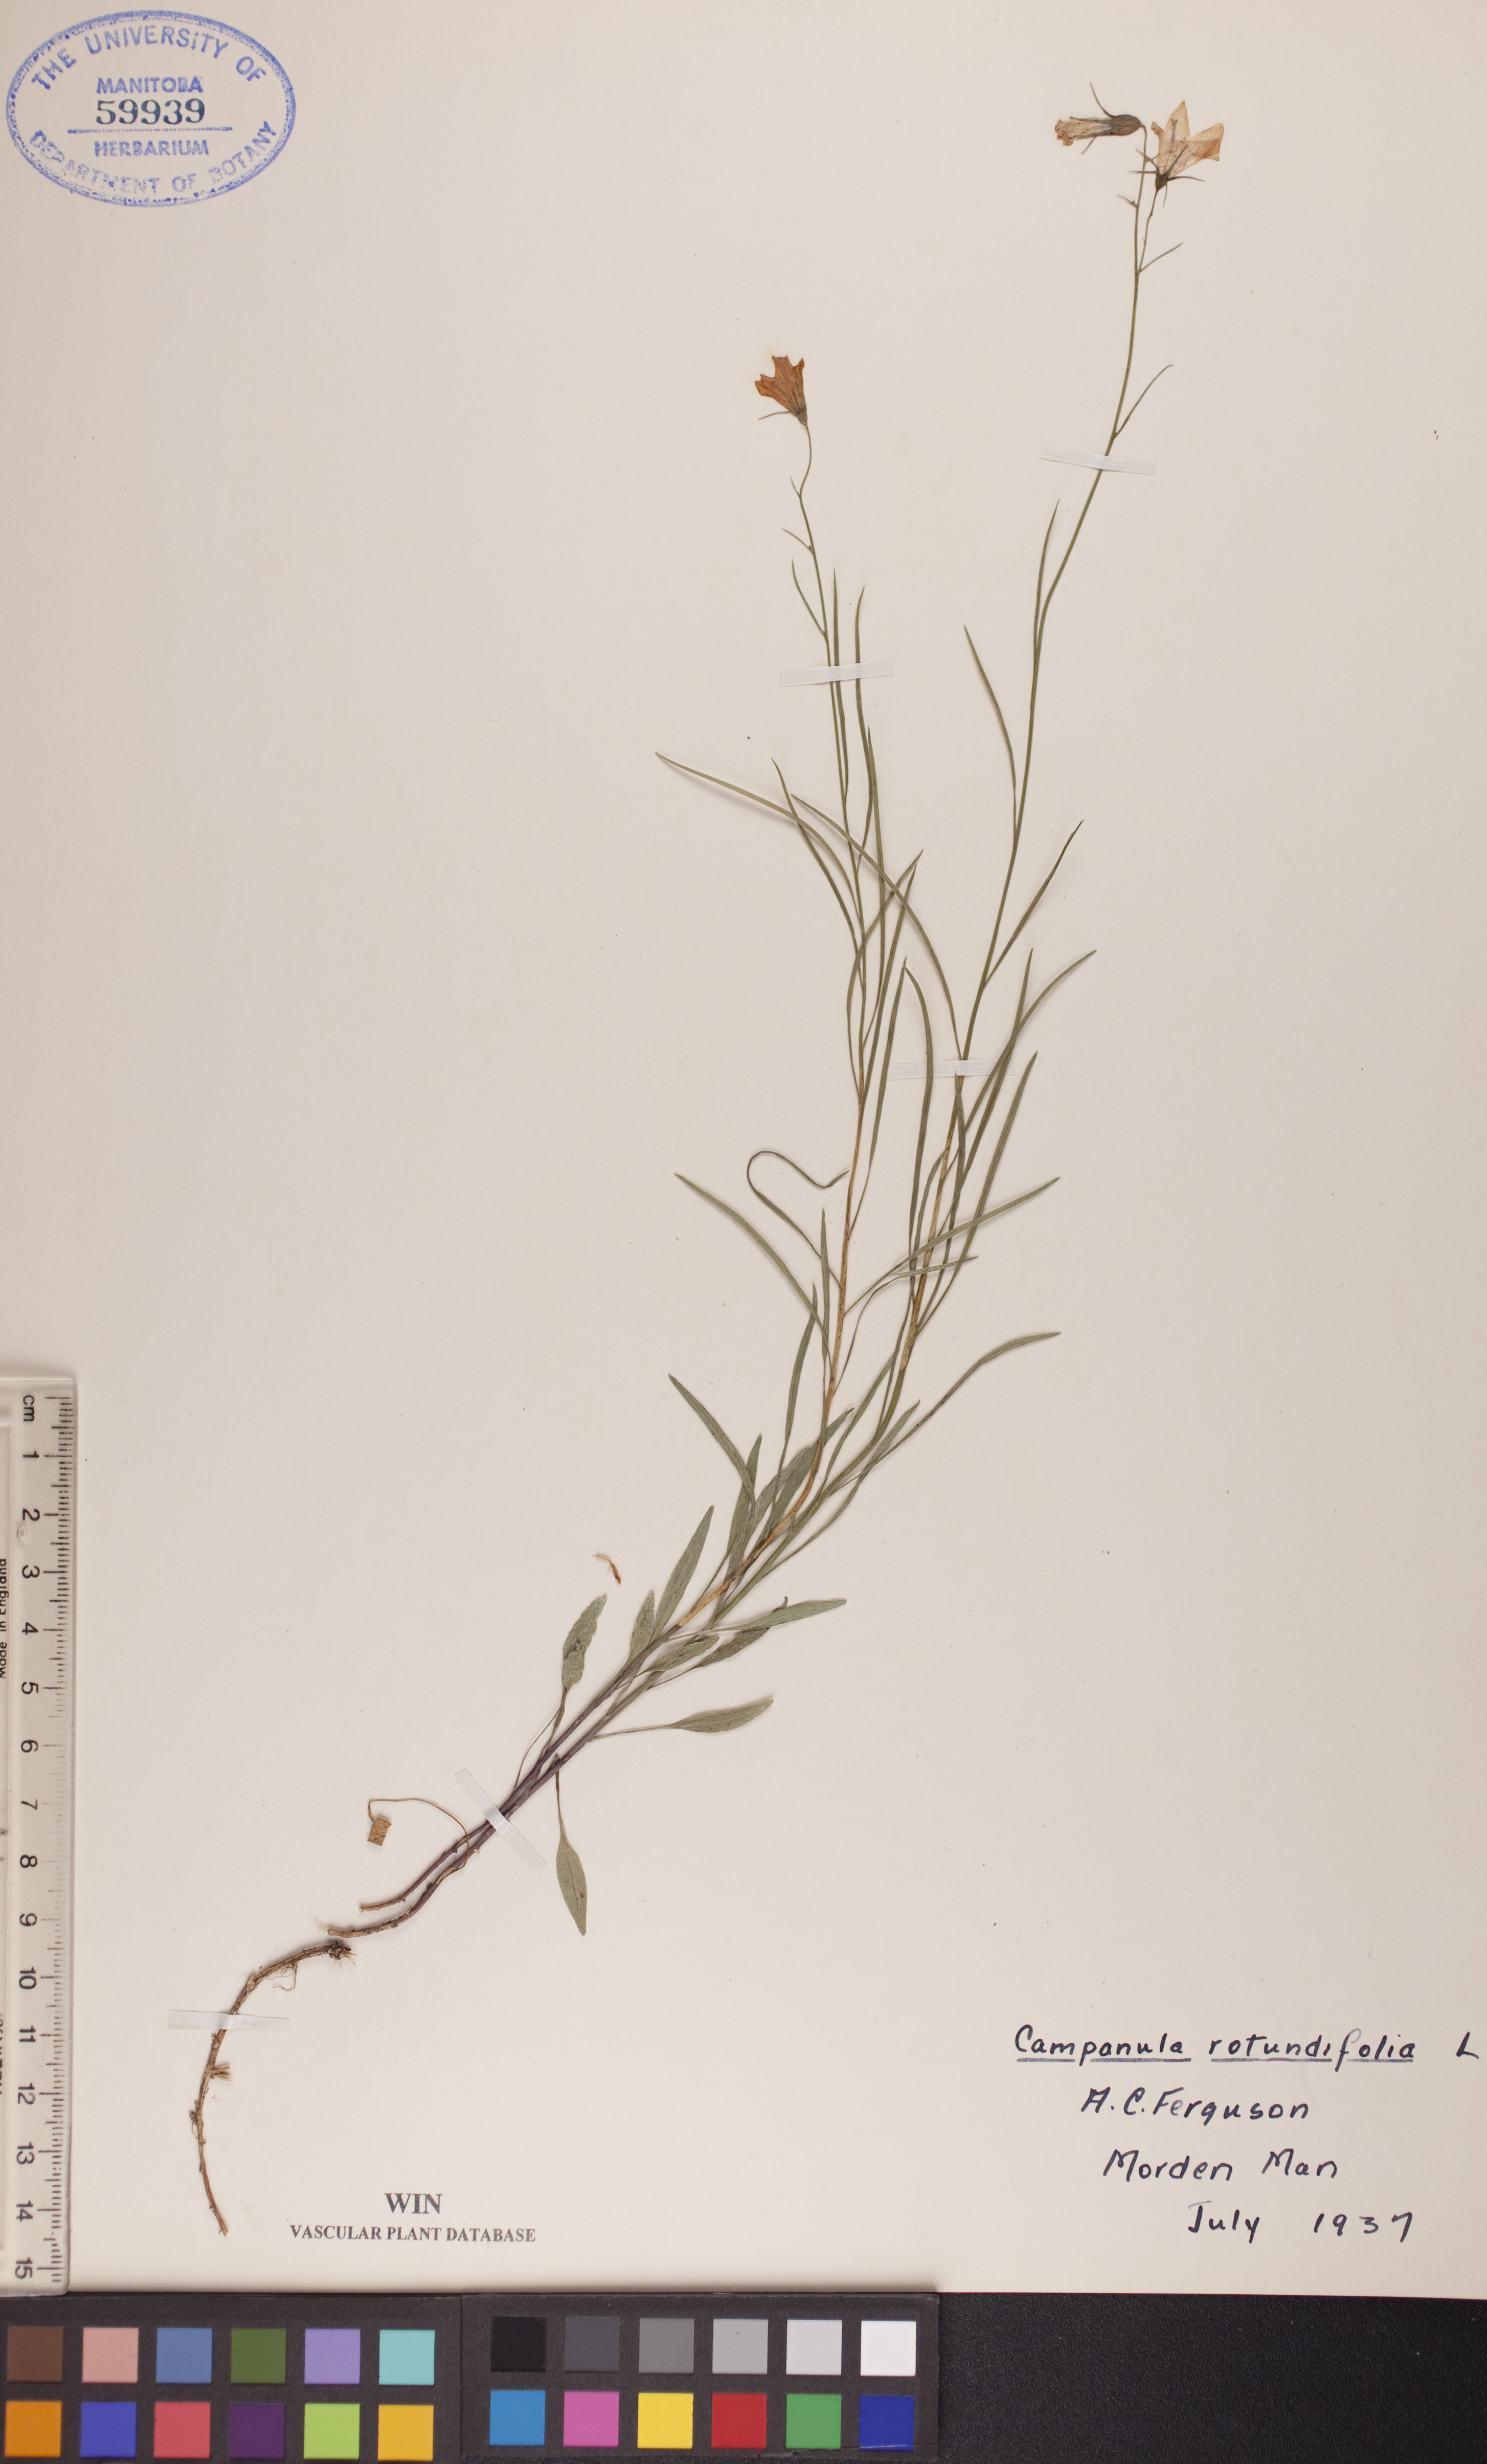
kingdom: Plantae
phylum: Tracheophyta
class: Magnoliopsida
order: Asterales
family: Campanulaceae
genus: Campanula
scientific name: Campanula rotundifolia
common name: Harebell
